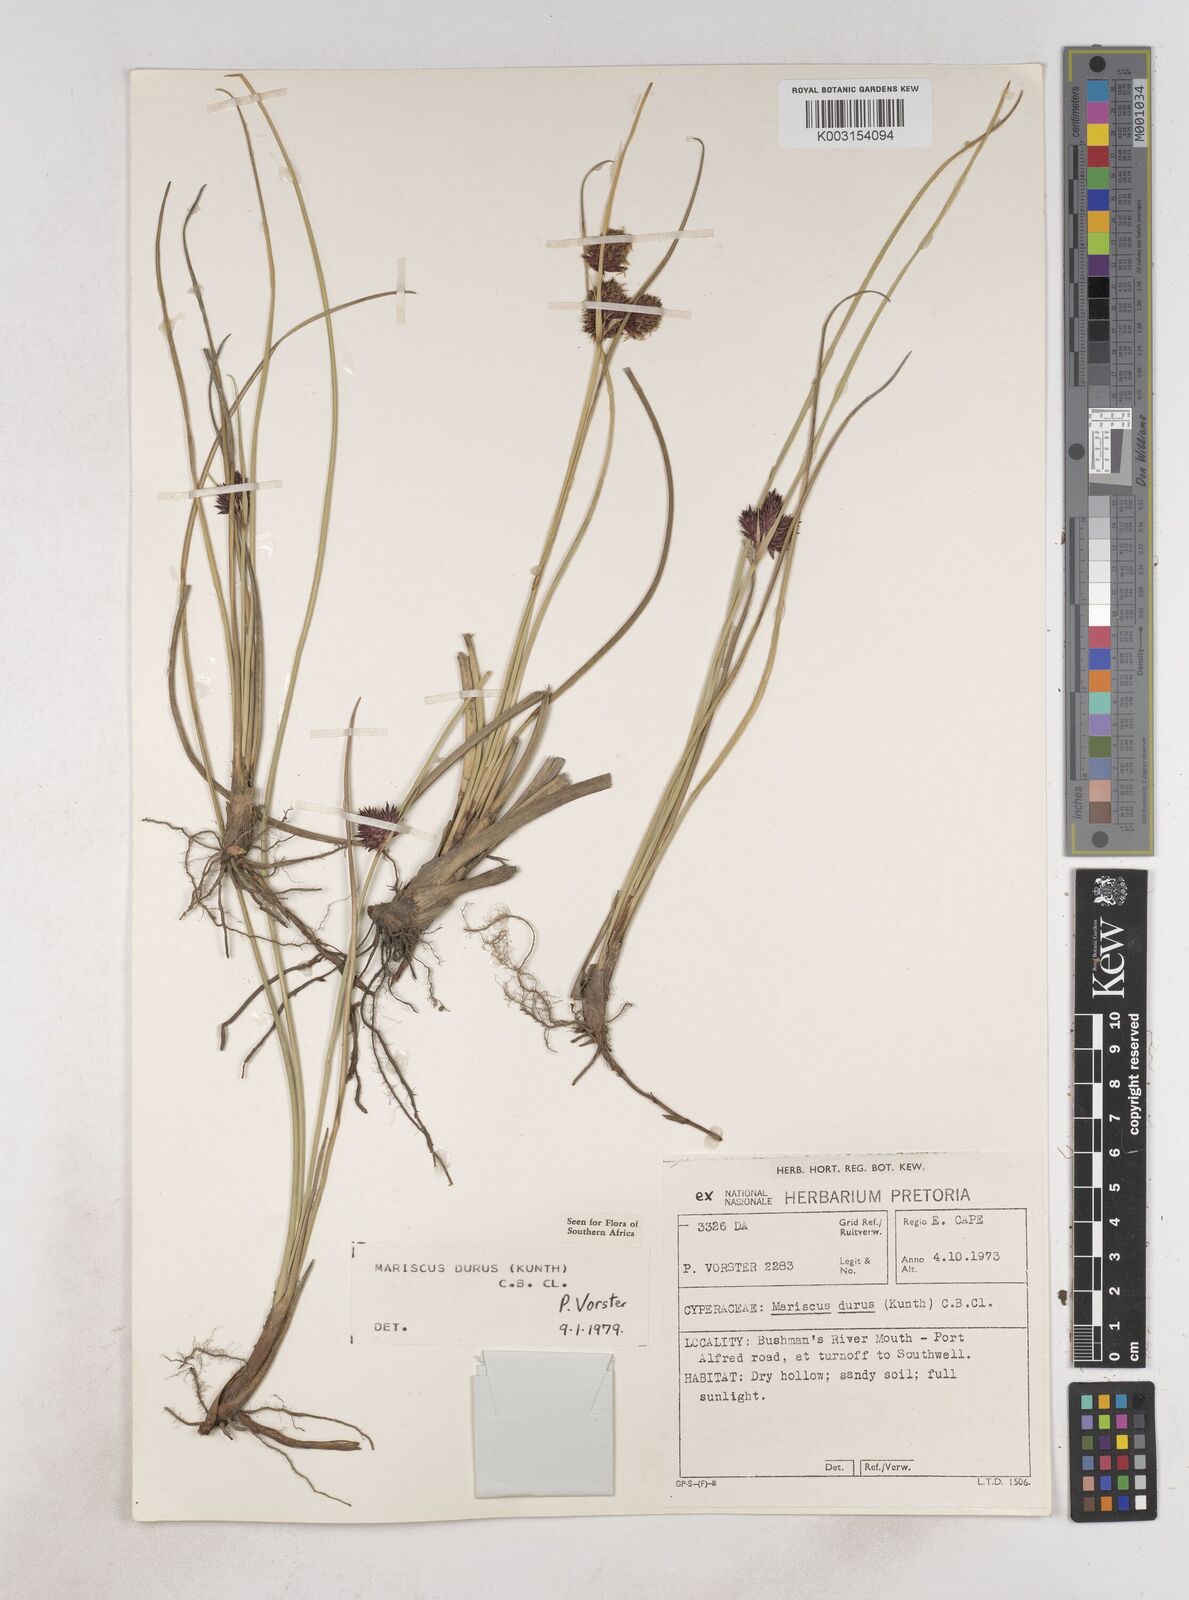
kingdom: Plantae
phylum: Tracheophyta
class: Liliopsida
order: Poales
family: Cyperaceae
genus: Cyperus
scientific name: Cyperus durus
